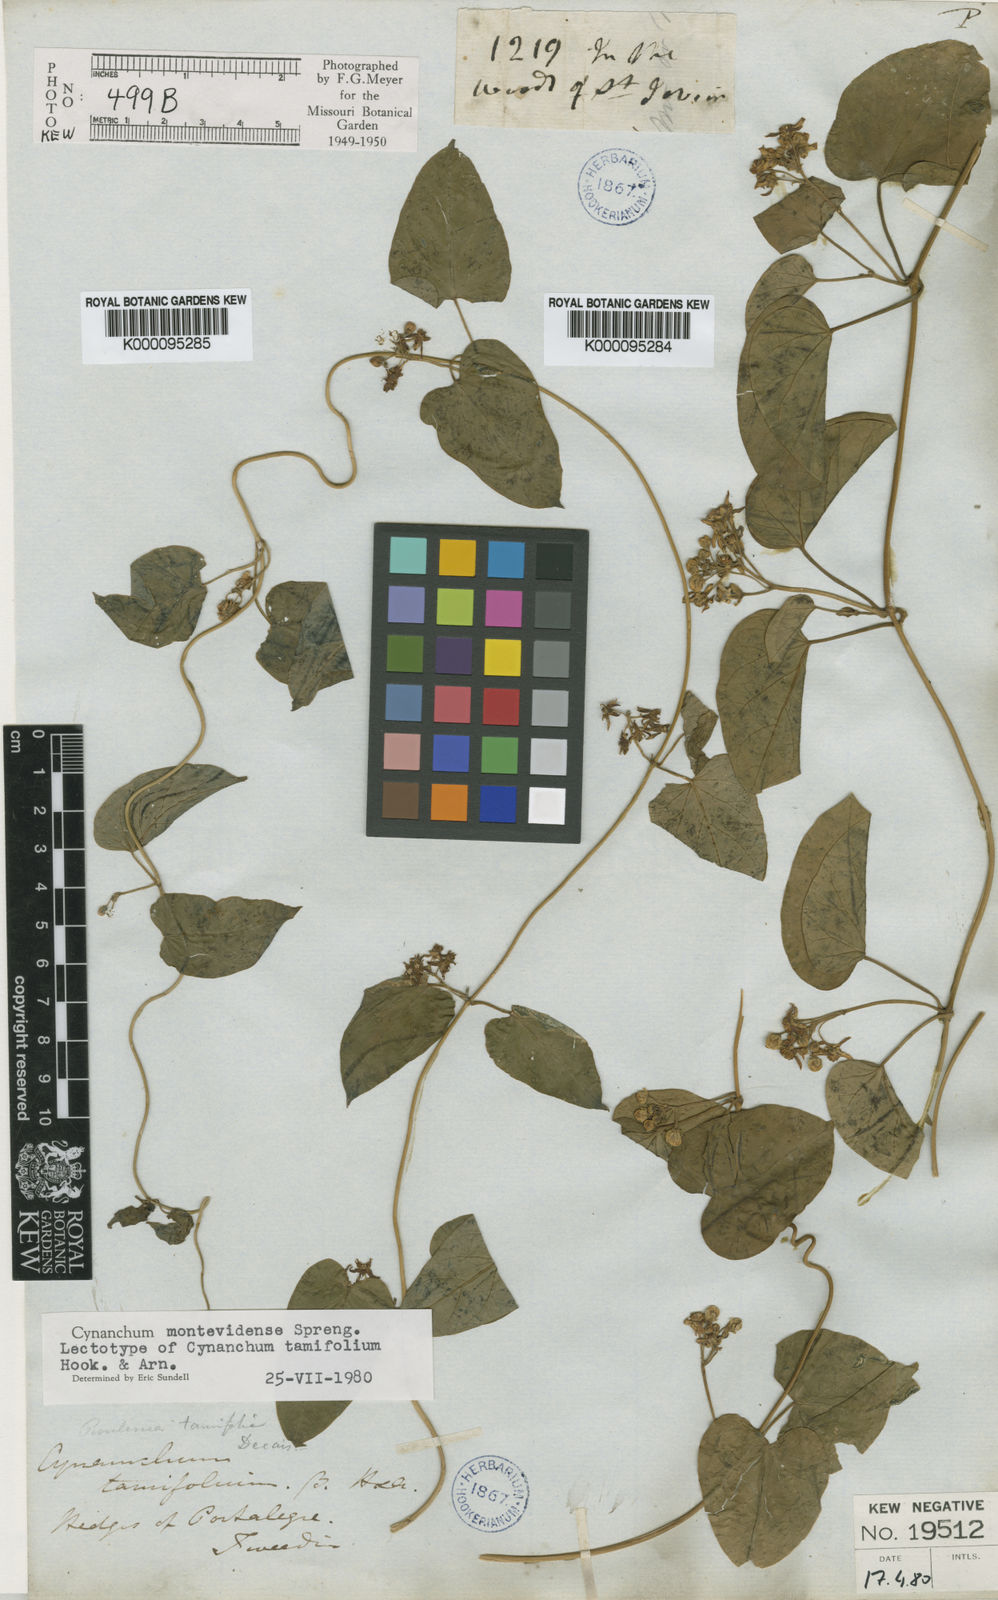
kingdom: Plantae
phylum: Tracheophyta
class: Magnoliopsida
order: Gentianales
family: Apocynaceae
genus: Cynanchum
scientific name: Cynanchum montevidense
